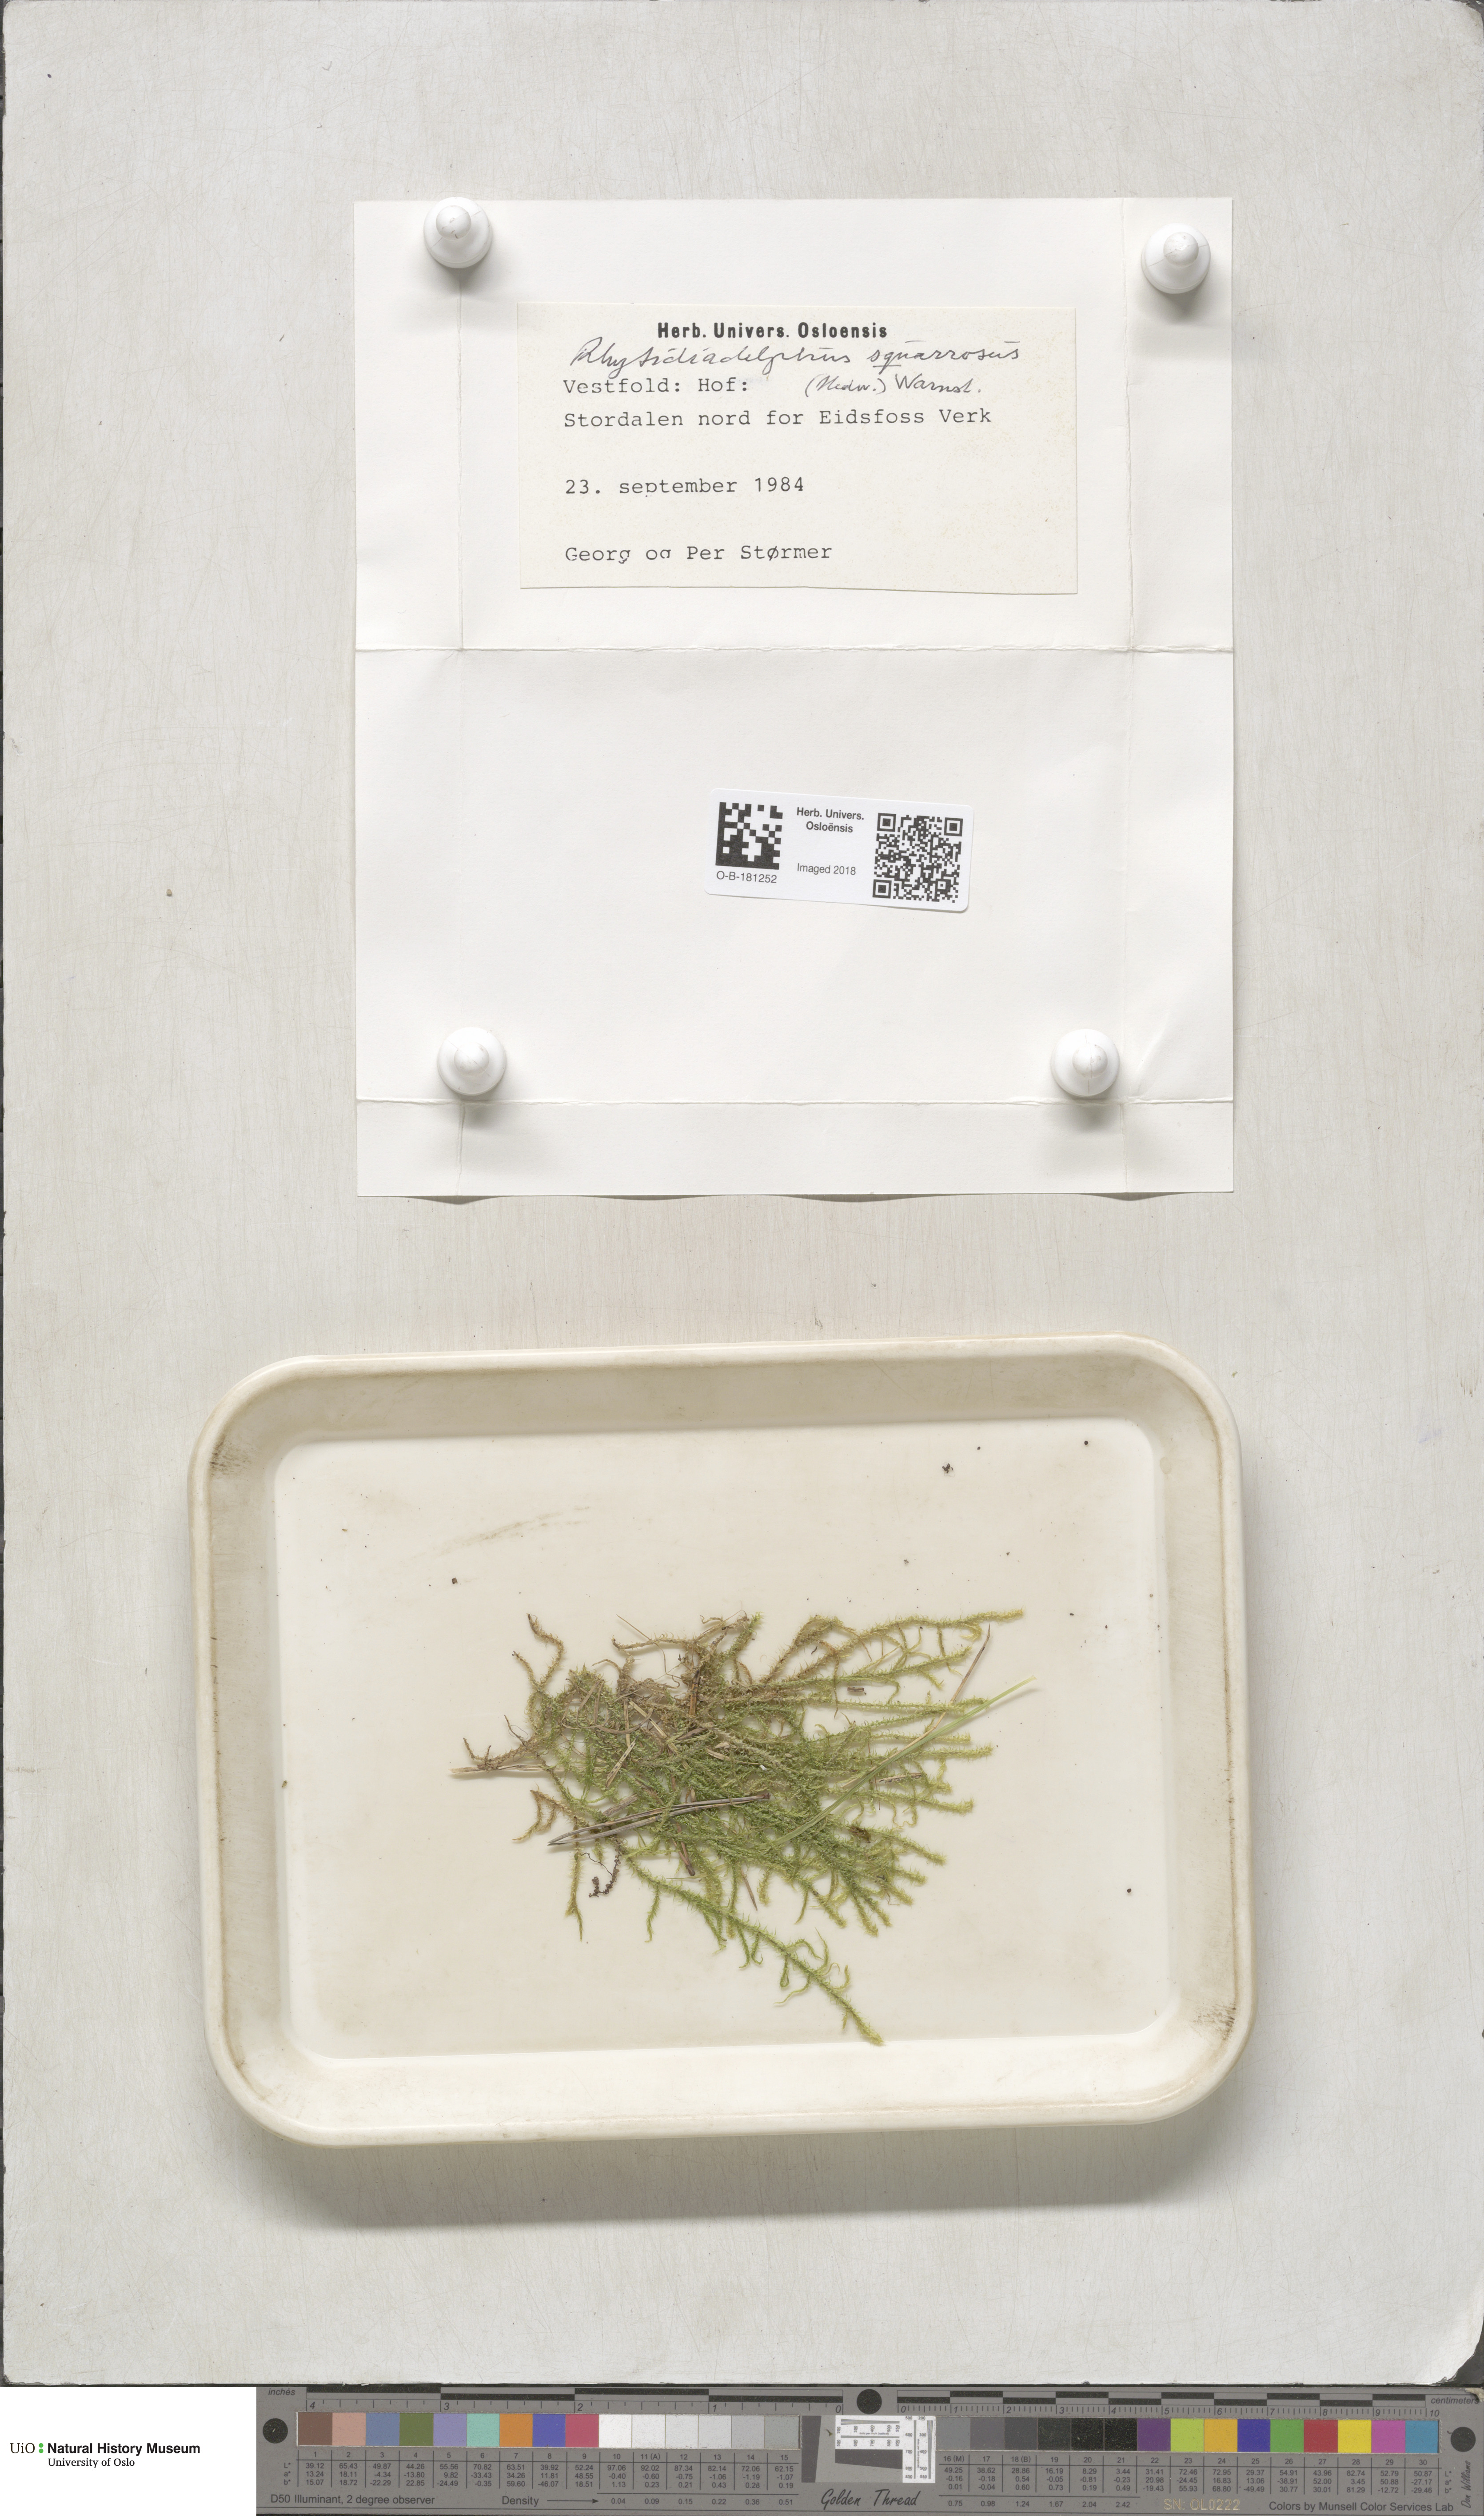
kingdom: Plantae
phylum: Bryophyta
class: Bryopsida
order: Hypnales
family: Hylocomiaceae
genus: Rhytidiadelphus
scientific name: Rhytidiadelphus squarrosus
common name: Springy turf-moss
